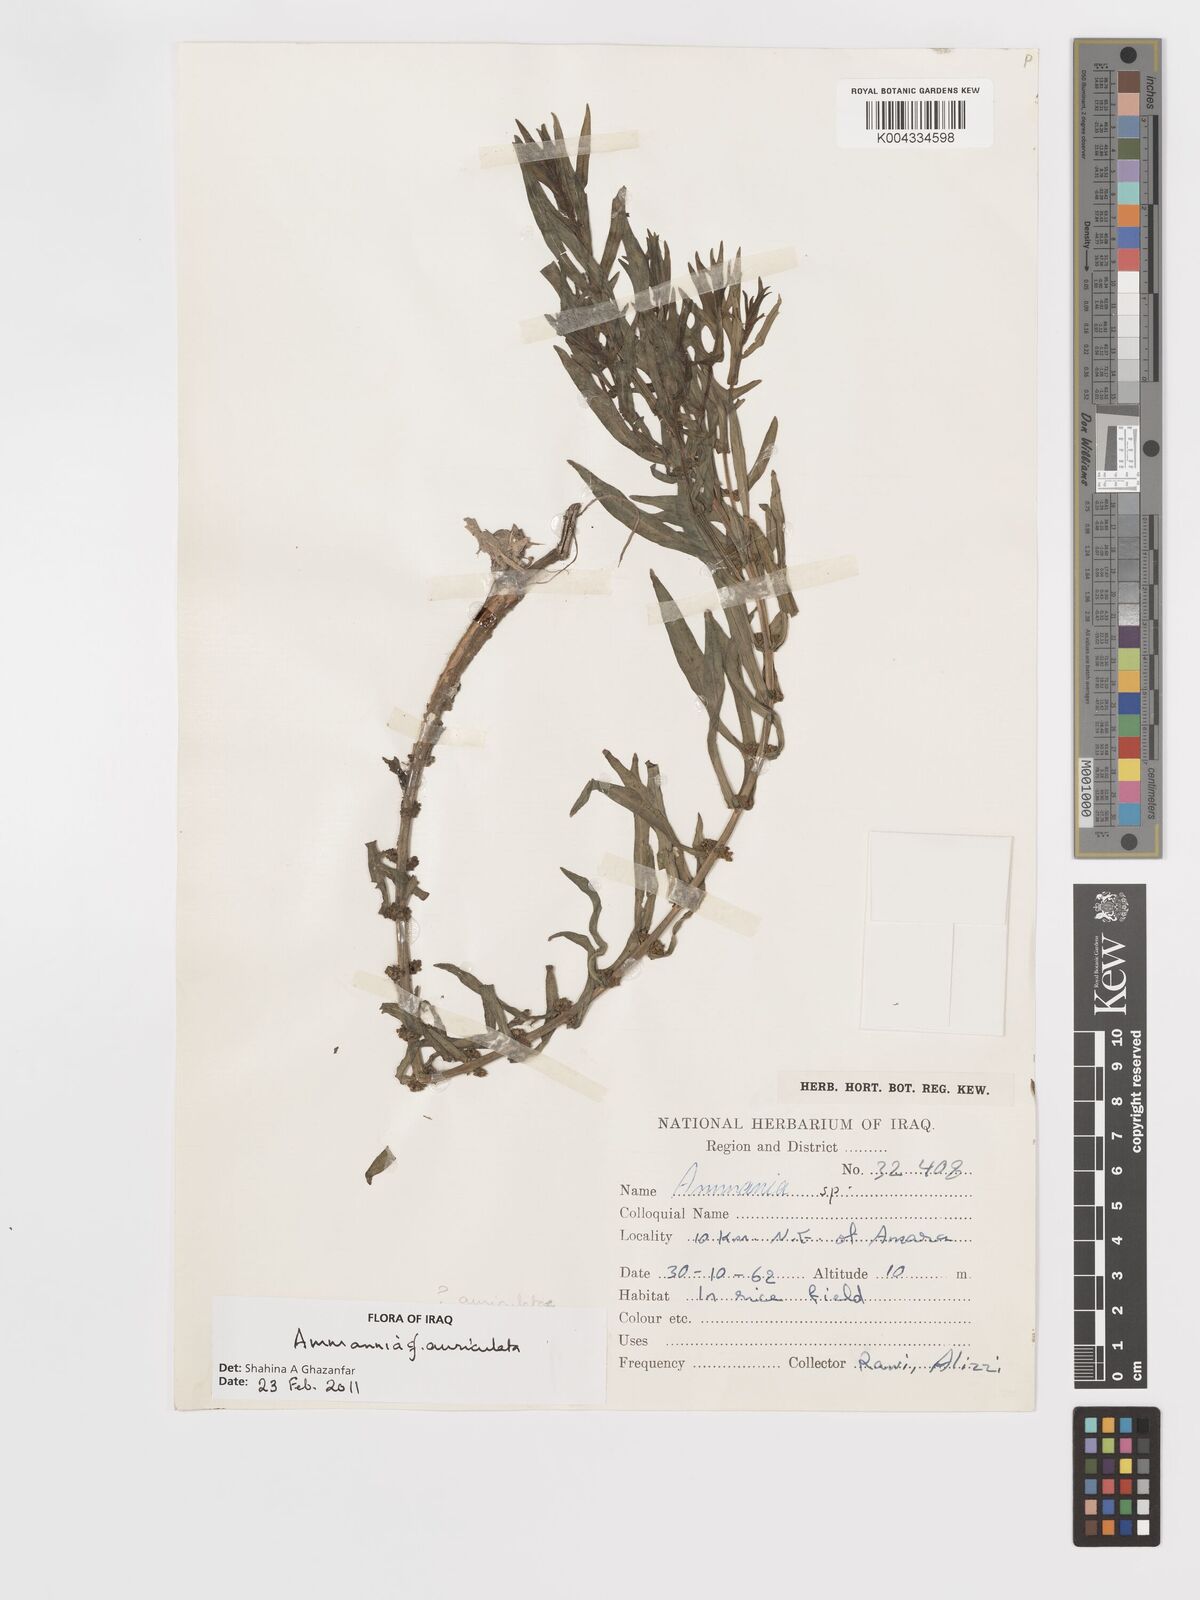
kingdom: Plantae
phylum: Tracheophyta
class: Magnoliopsida
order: Myrtales
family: Lythraceae
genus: Ammannia
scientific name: Ammannia auriculata
